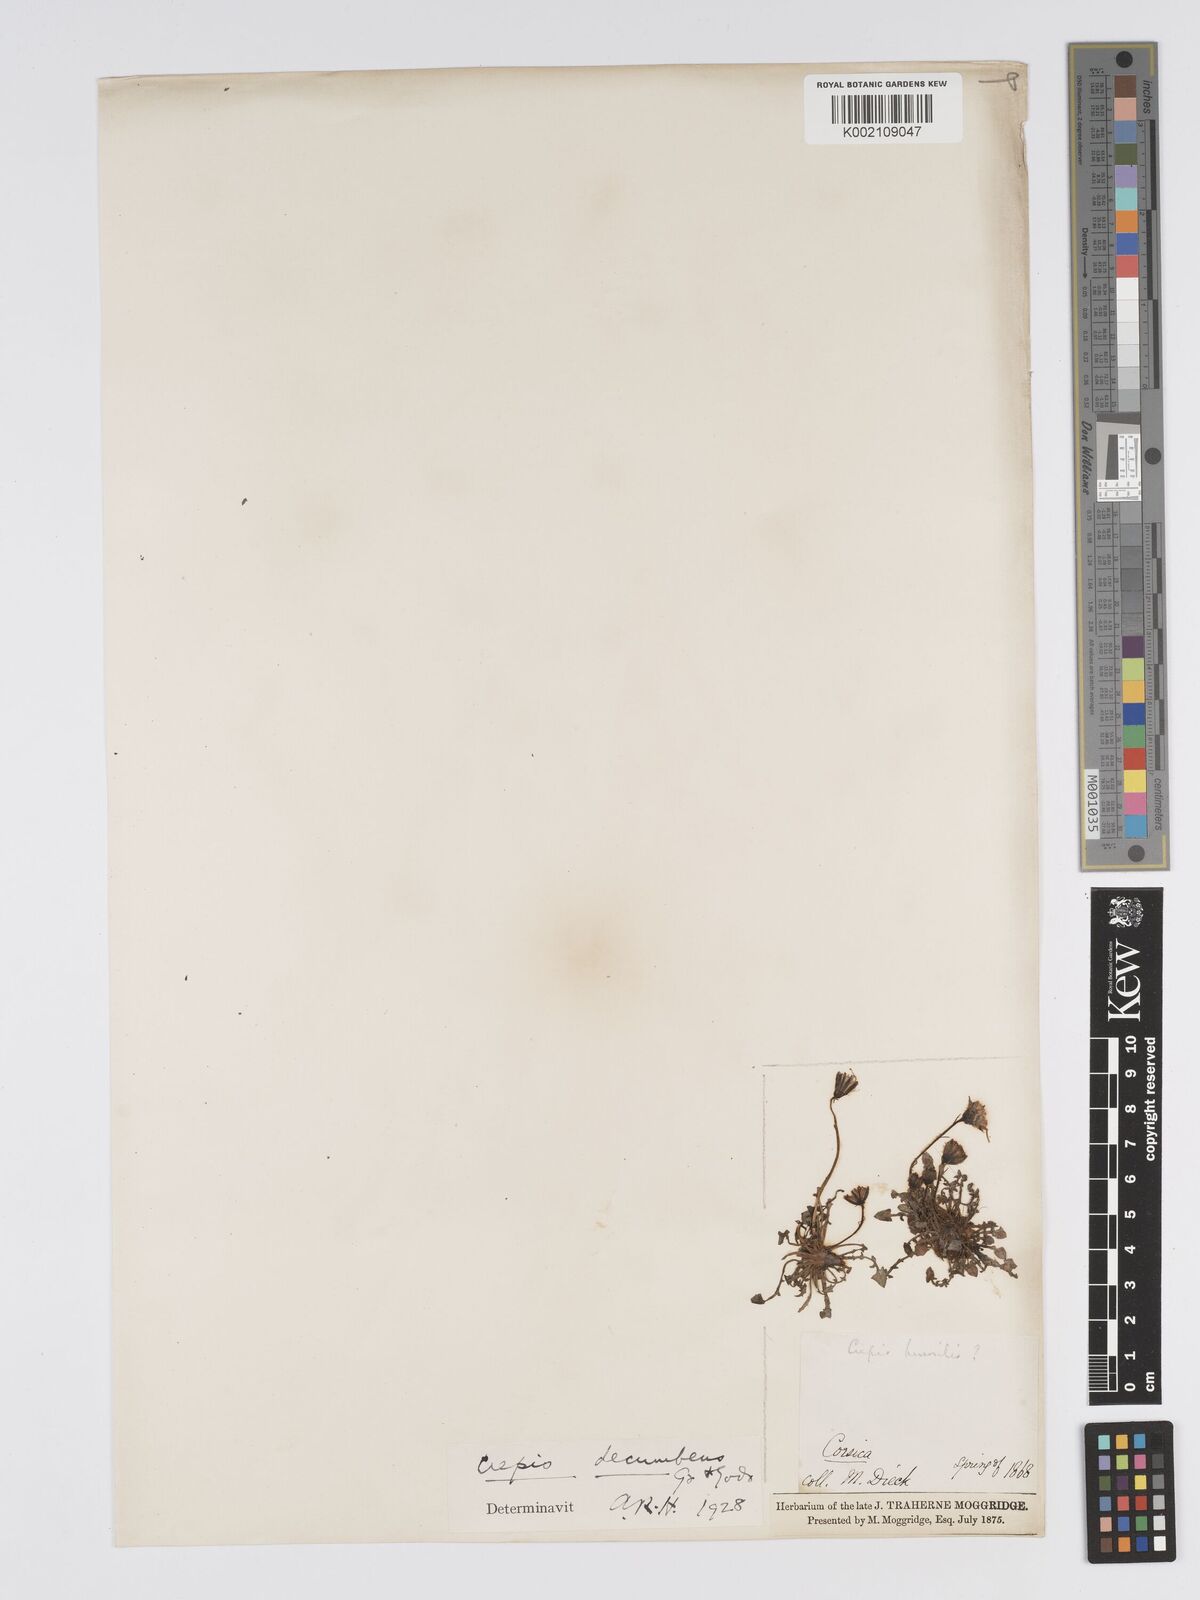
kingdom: Plantae
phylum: Tracheophyta
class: Magnoliopsida
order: Asterales
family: Asteraceae
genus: Crepis
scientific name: Crepis bellidifolia
